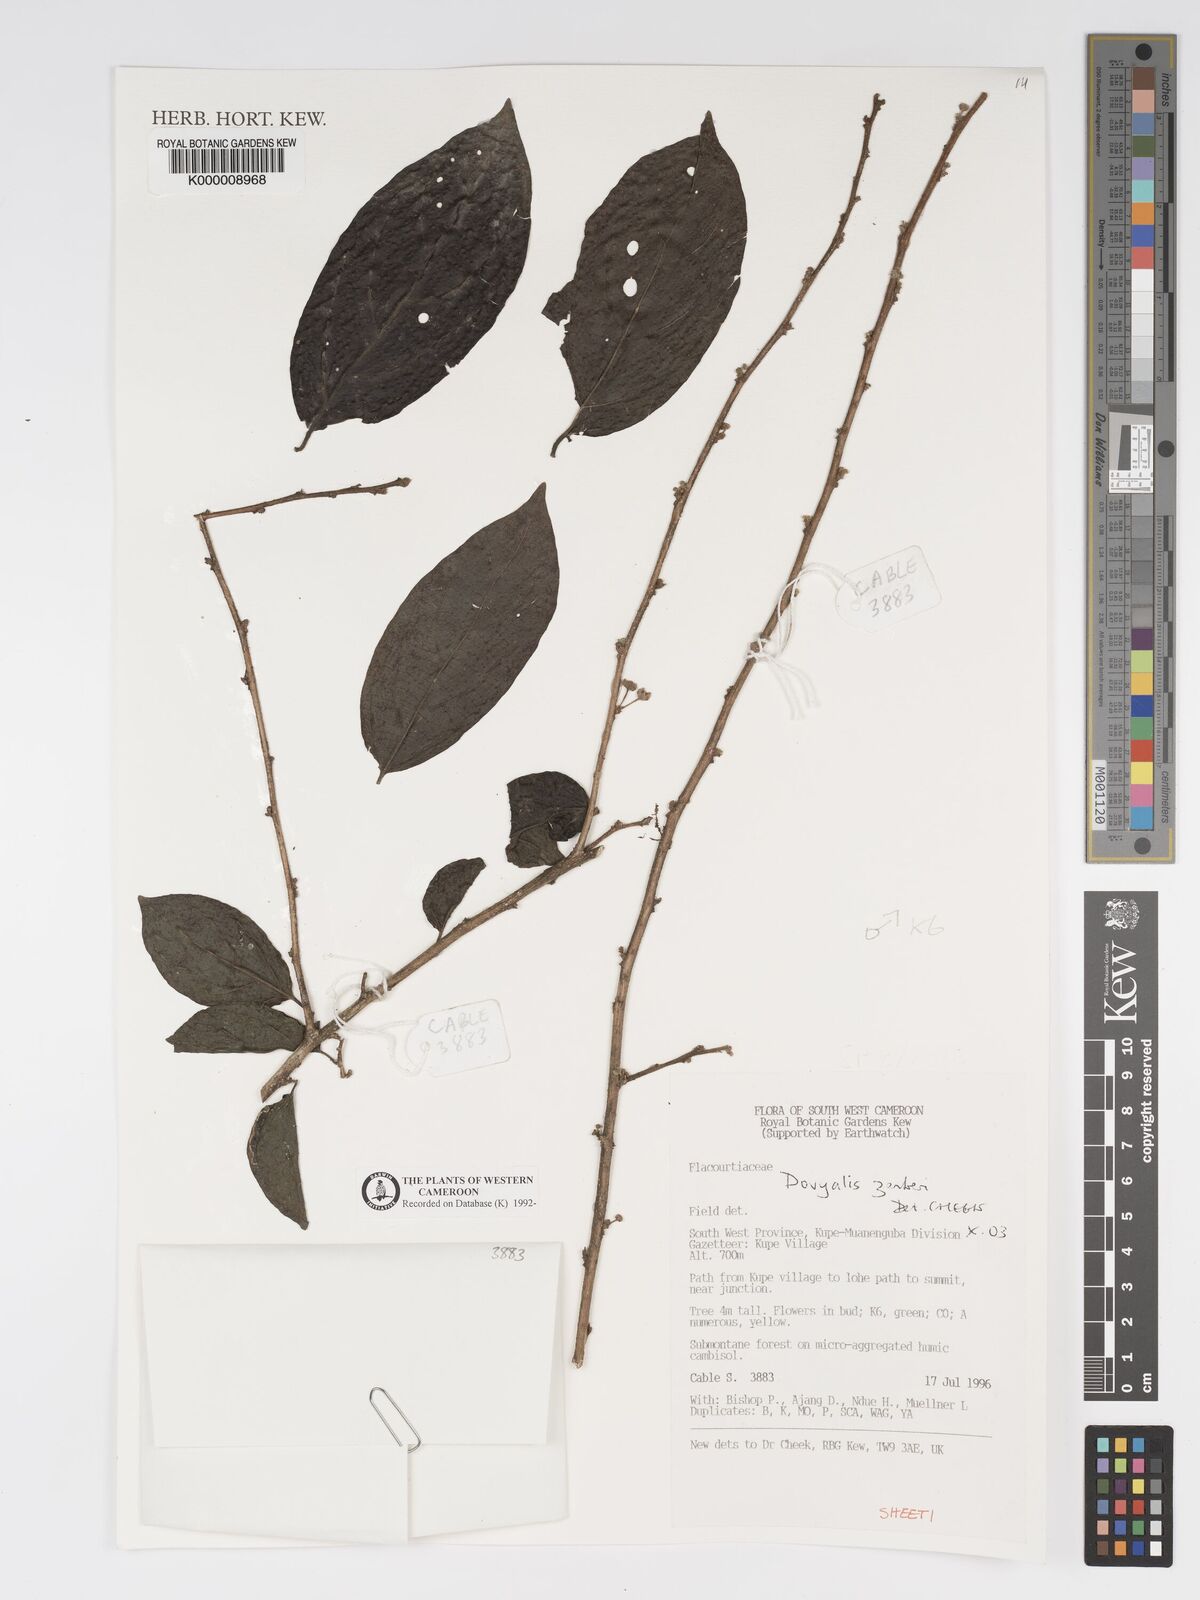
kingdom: Plantae
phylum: Tracheophyta
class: Magnoliopsida
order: Malpighiales
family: Salicaceae
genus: Dovyalis
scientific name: Dovyalis zenkeri
